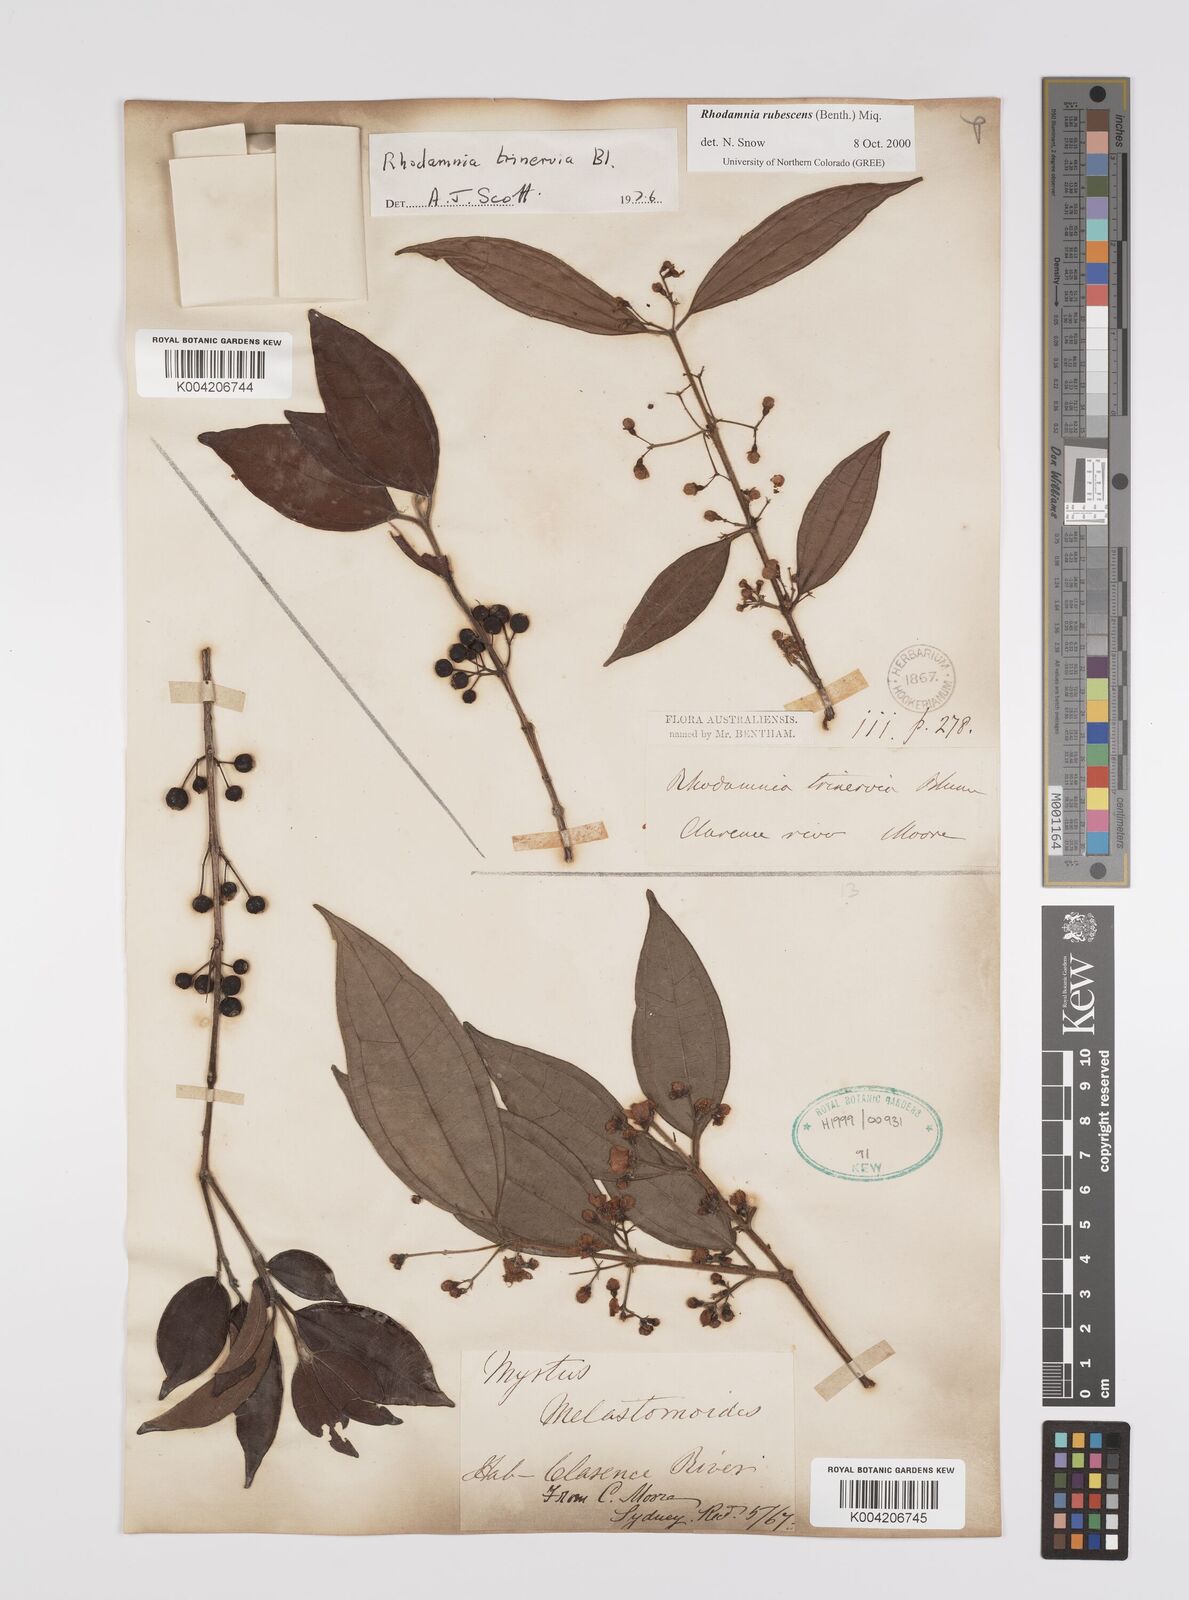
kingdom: Plantae
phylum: Tracheophyta
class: Magnoliopsida
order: Myrtales
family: Myrtaceae
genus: Rhodamnia
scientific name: Rhodamnia rubescens
